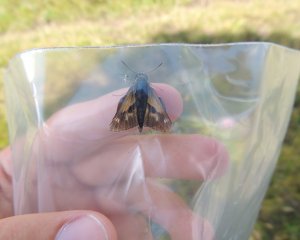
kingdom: Animalia
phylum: Arthropoda
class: Insecta
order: Lepidoptera
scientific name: Lepidoptera
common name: Butterflies
